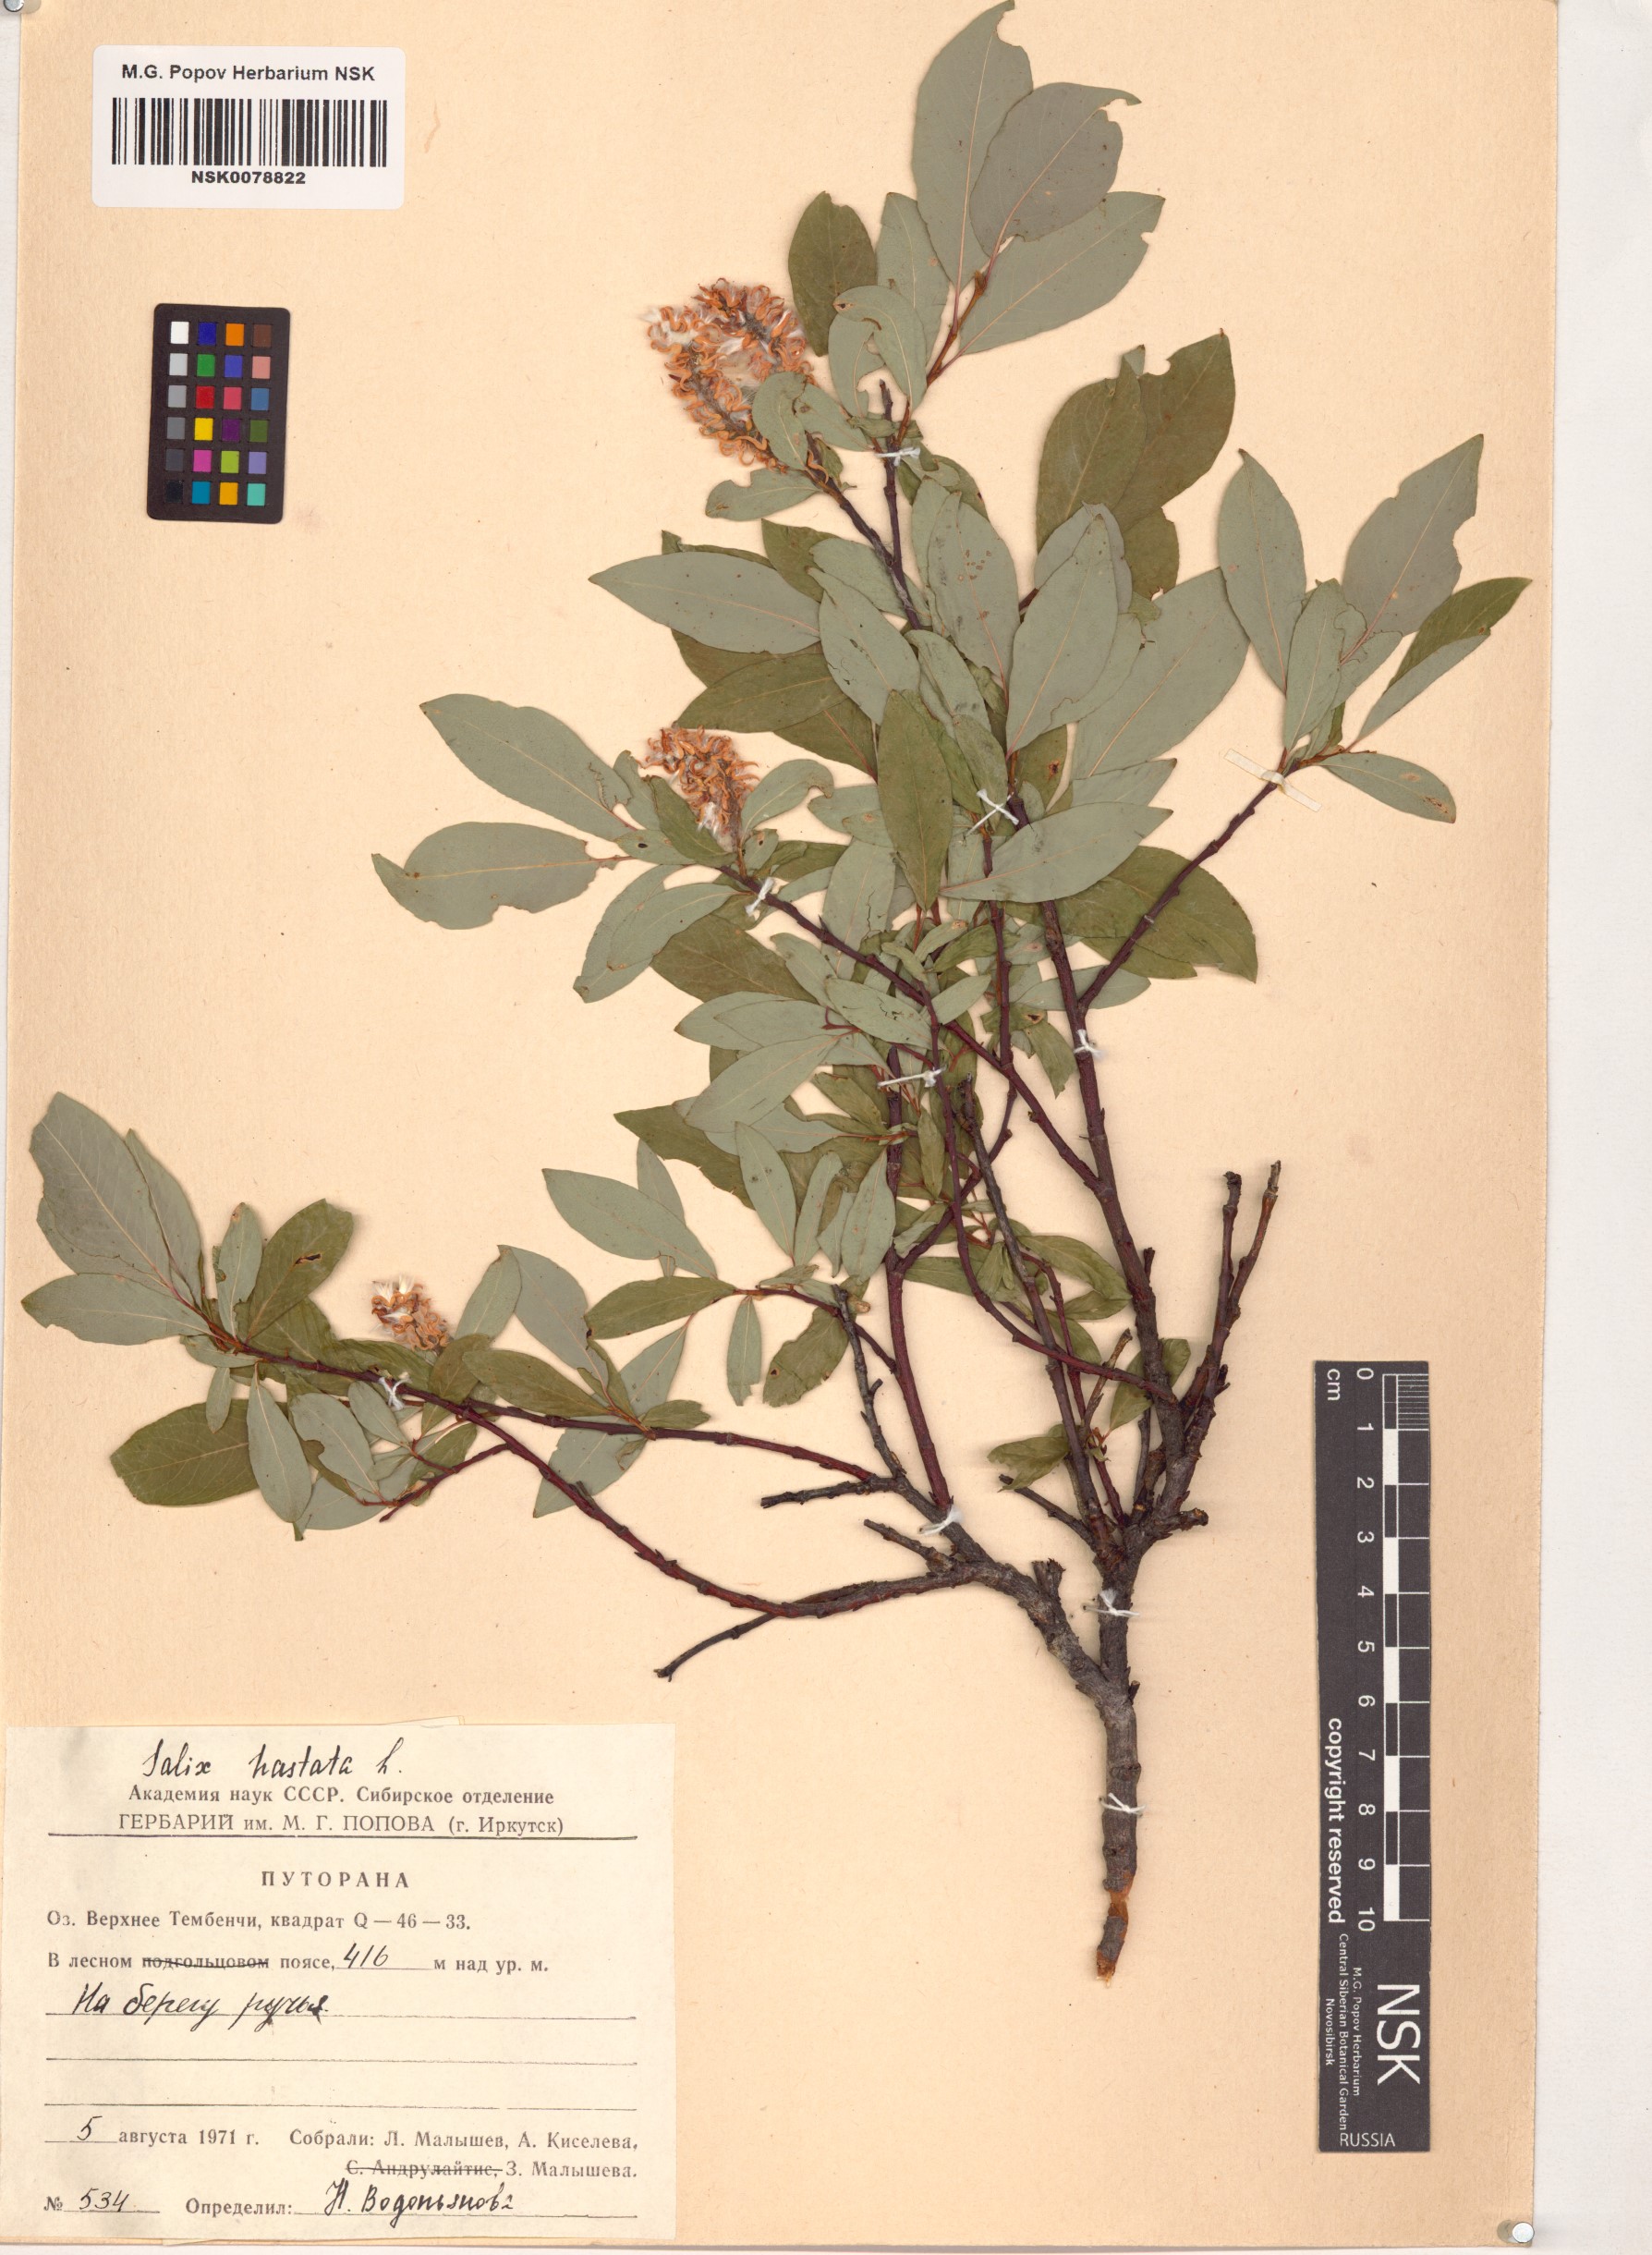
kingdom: Plantae
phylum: Tracheophyta
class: Magnoliopsida
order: Malpighiales
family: Salicaceae
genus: Salix
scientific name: Salix hastata
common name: Halberd willow
